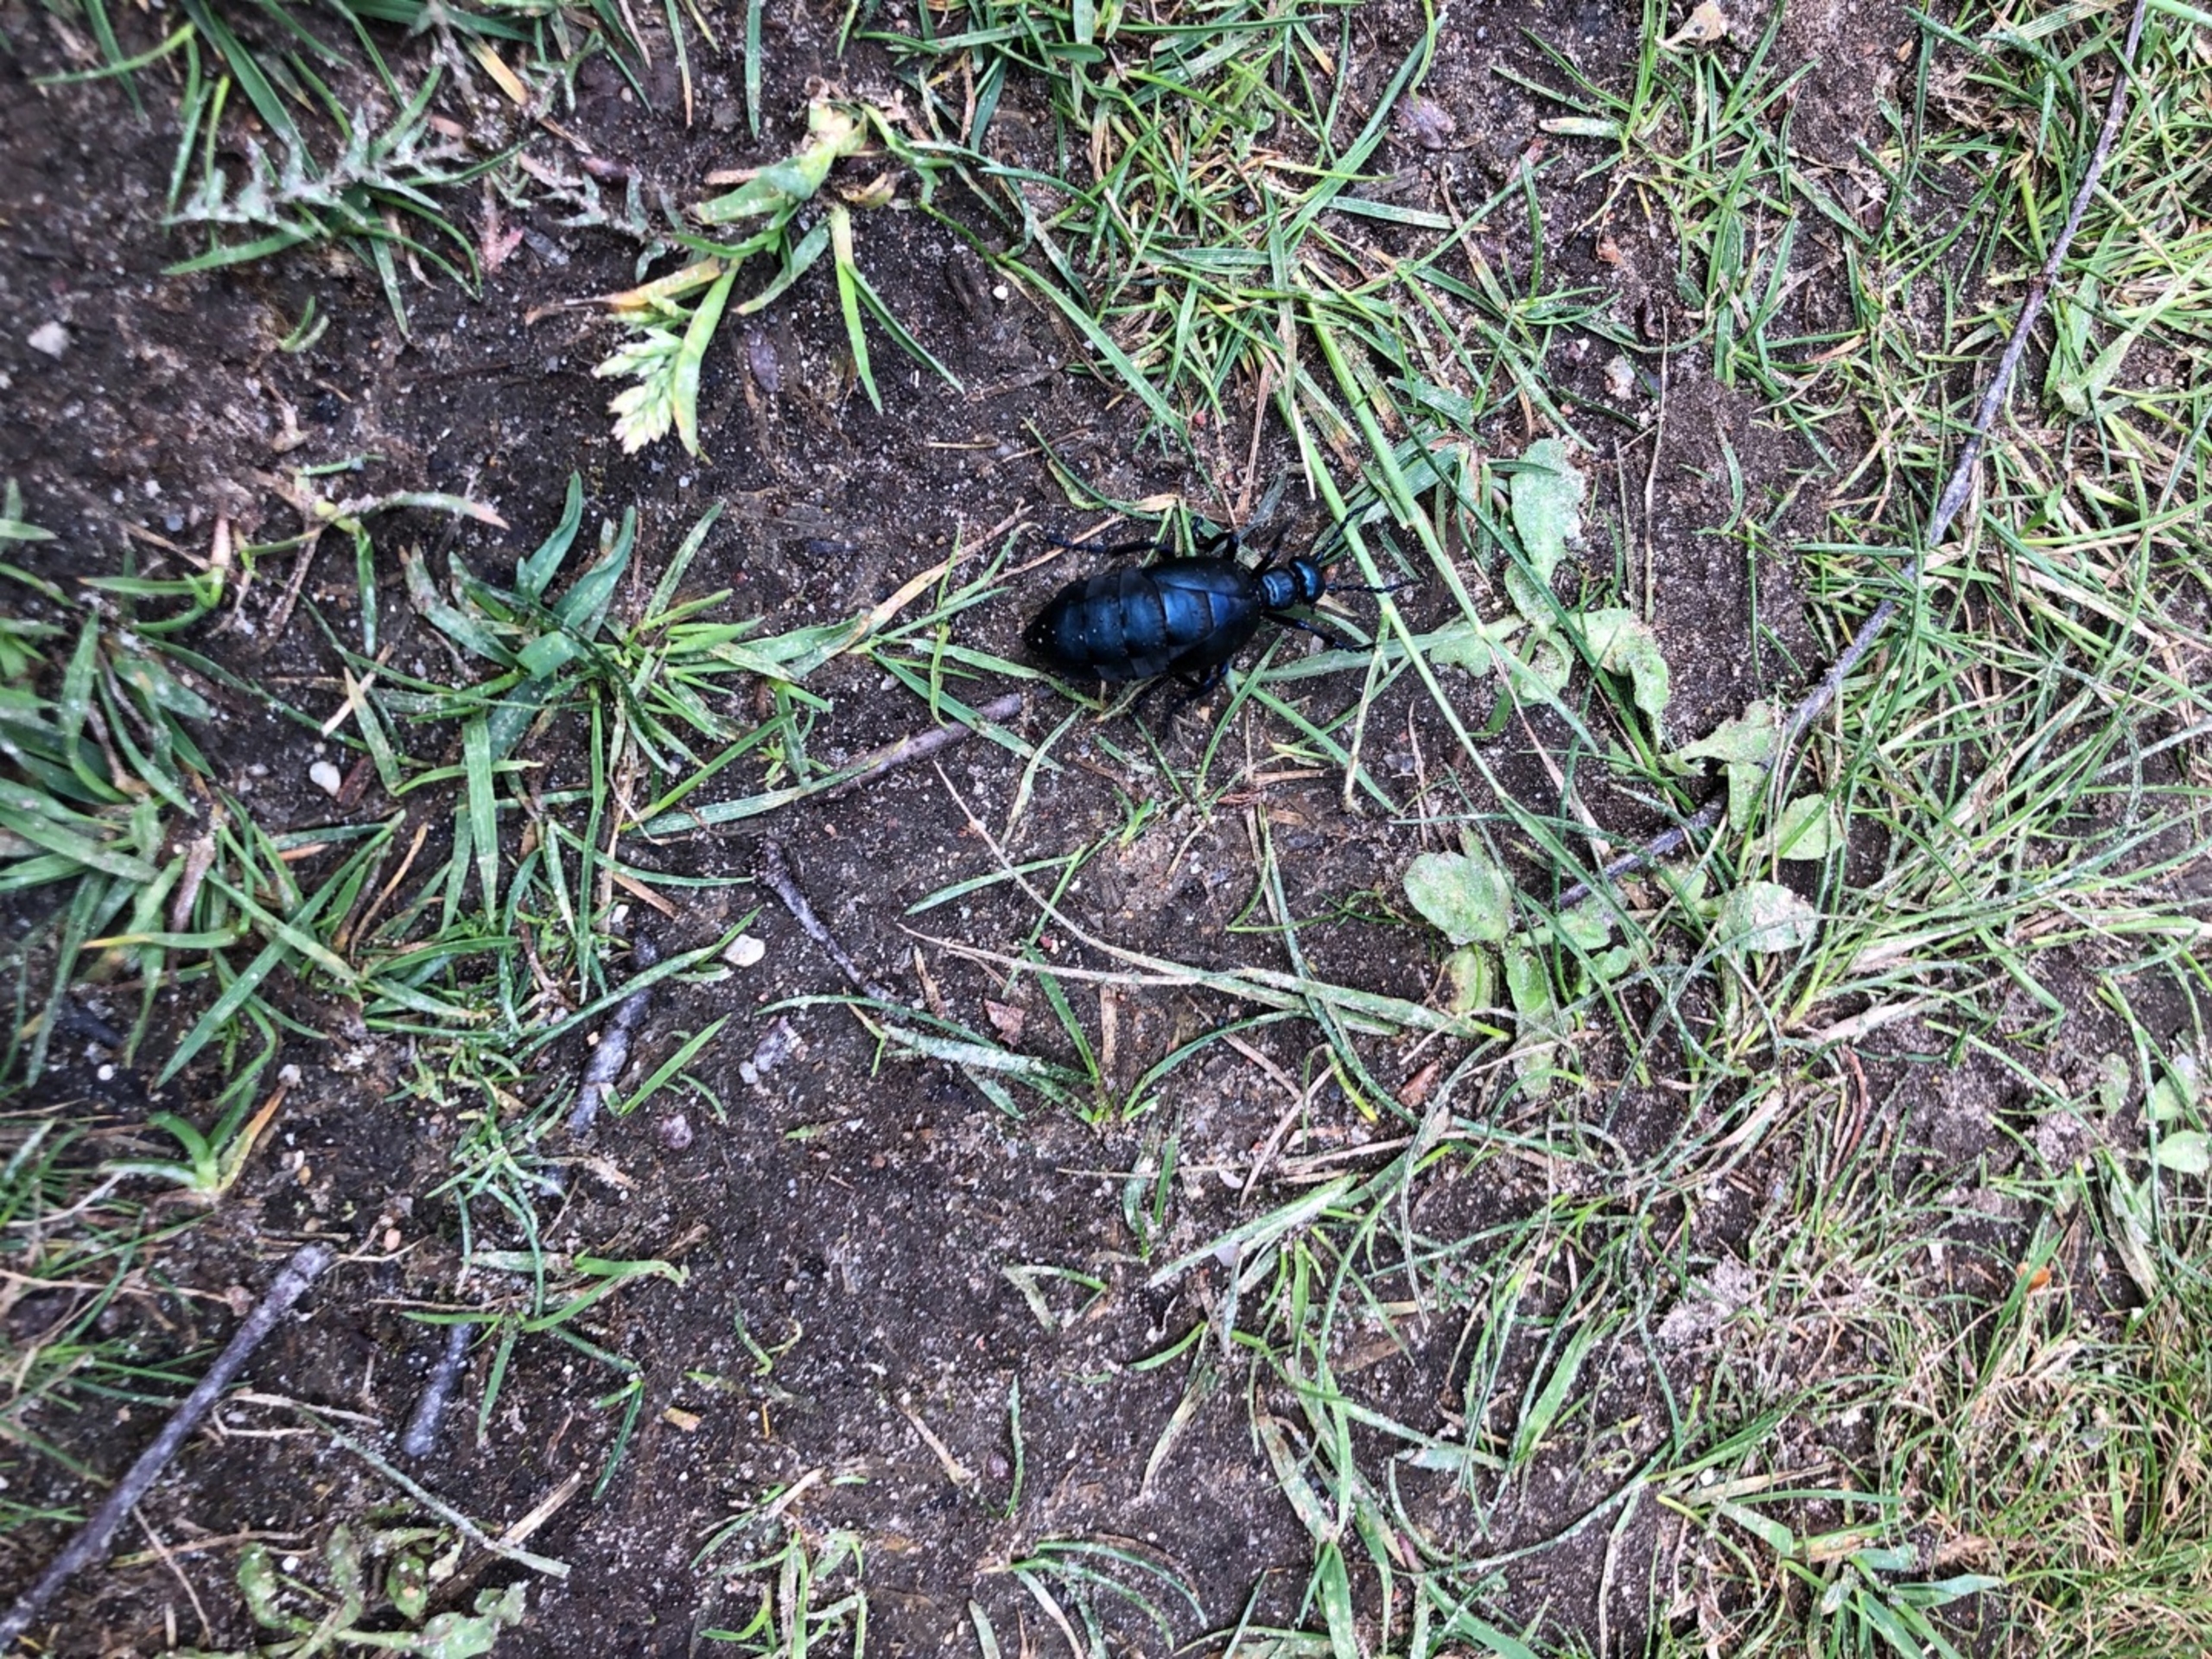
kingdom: Animalia
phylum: Arthropoda
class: Insecta
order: Coleoptera
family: Meloidae
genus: Meloe
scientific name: Meloe violaceus
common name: Blå oliebille
